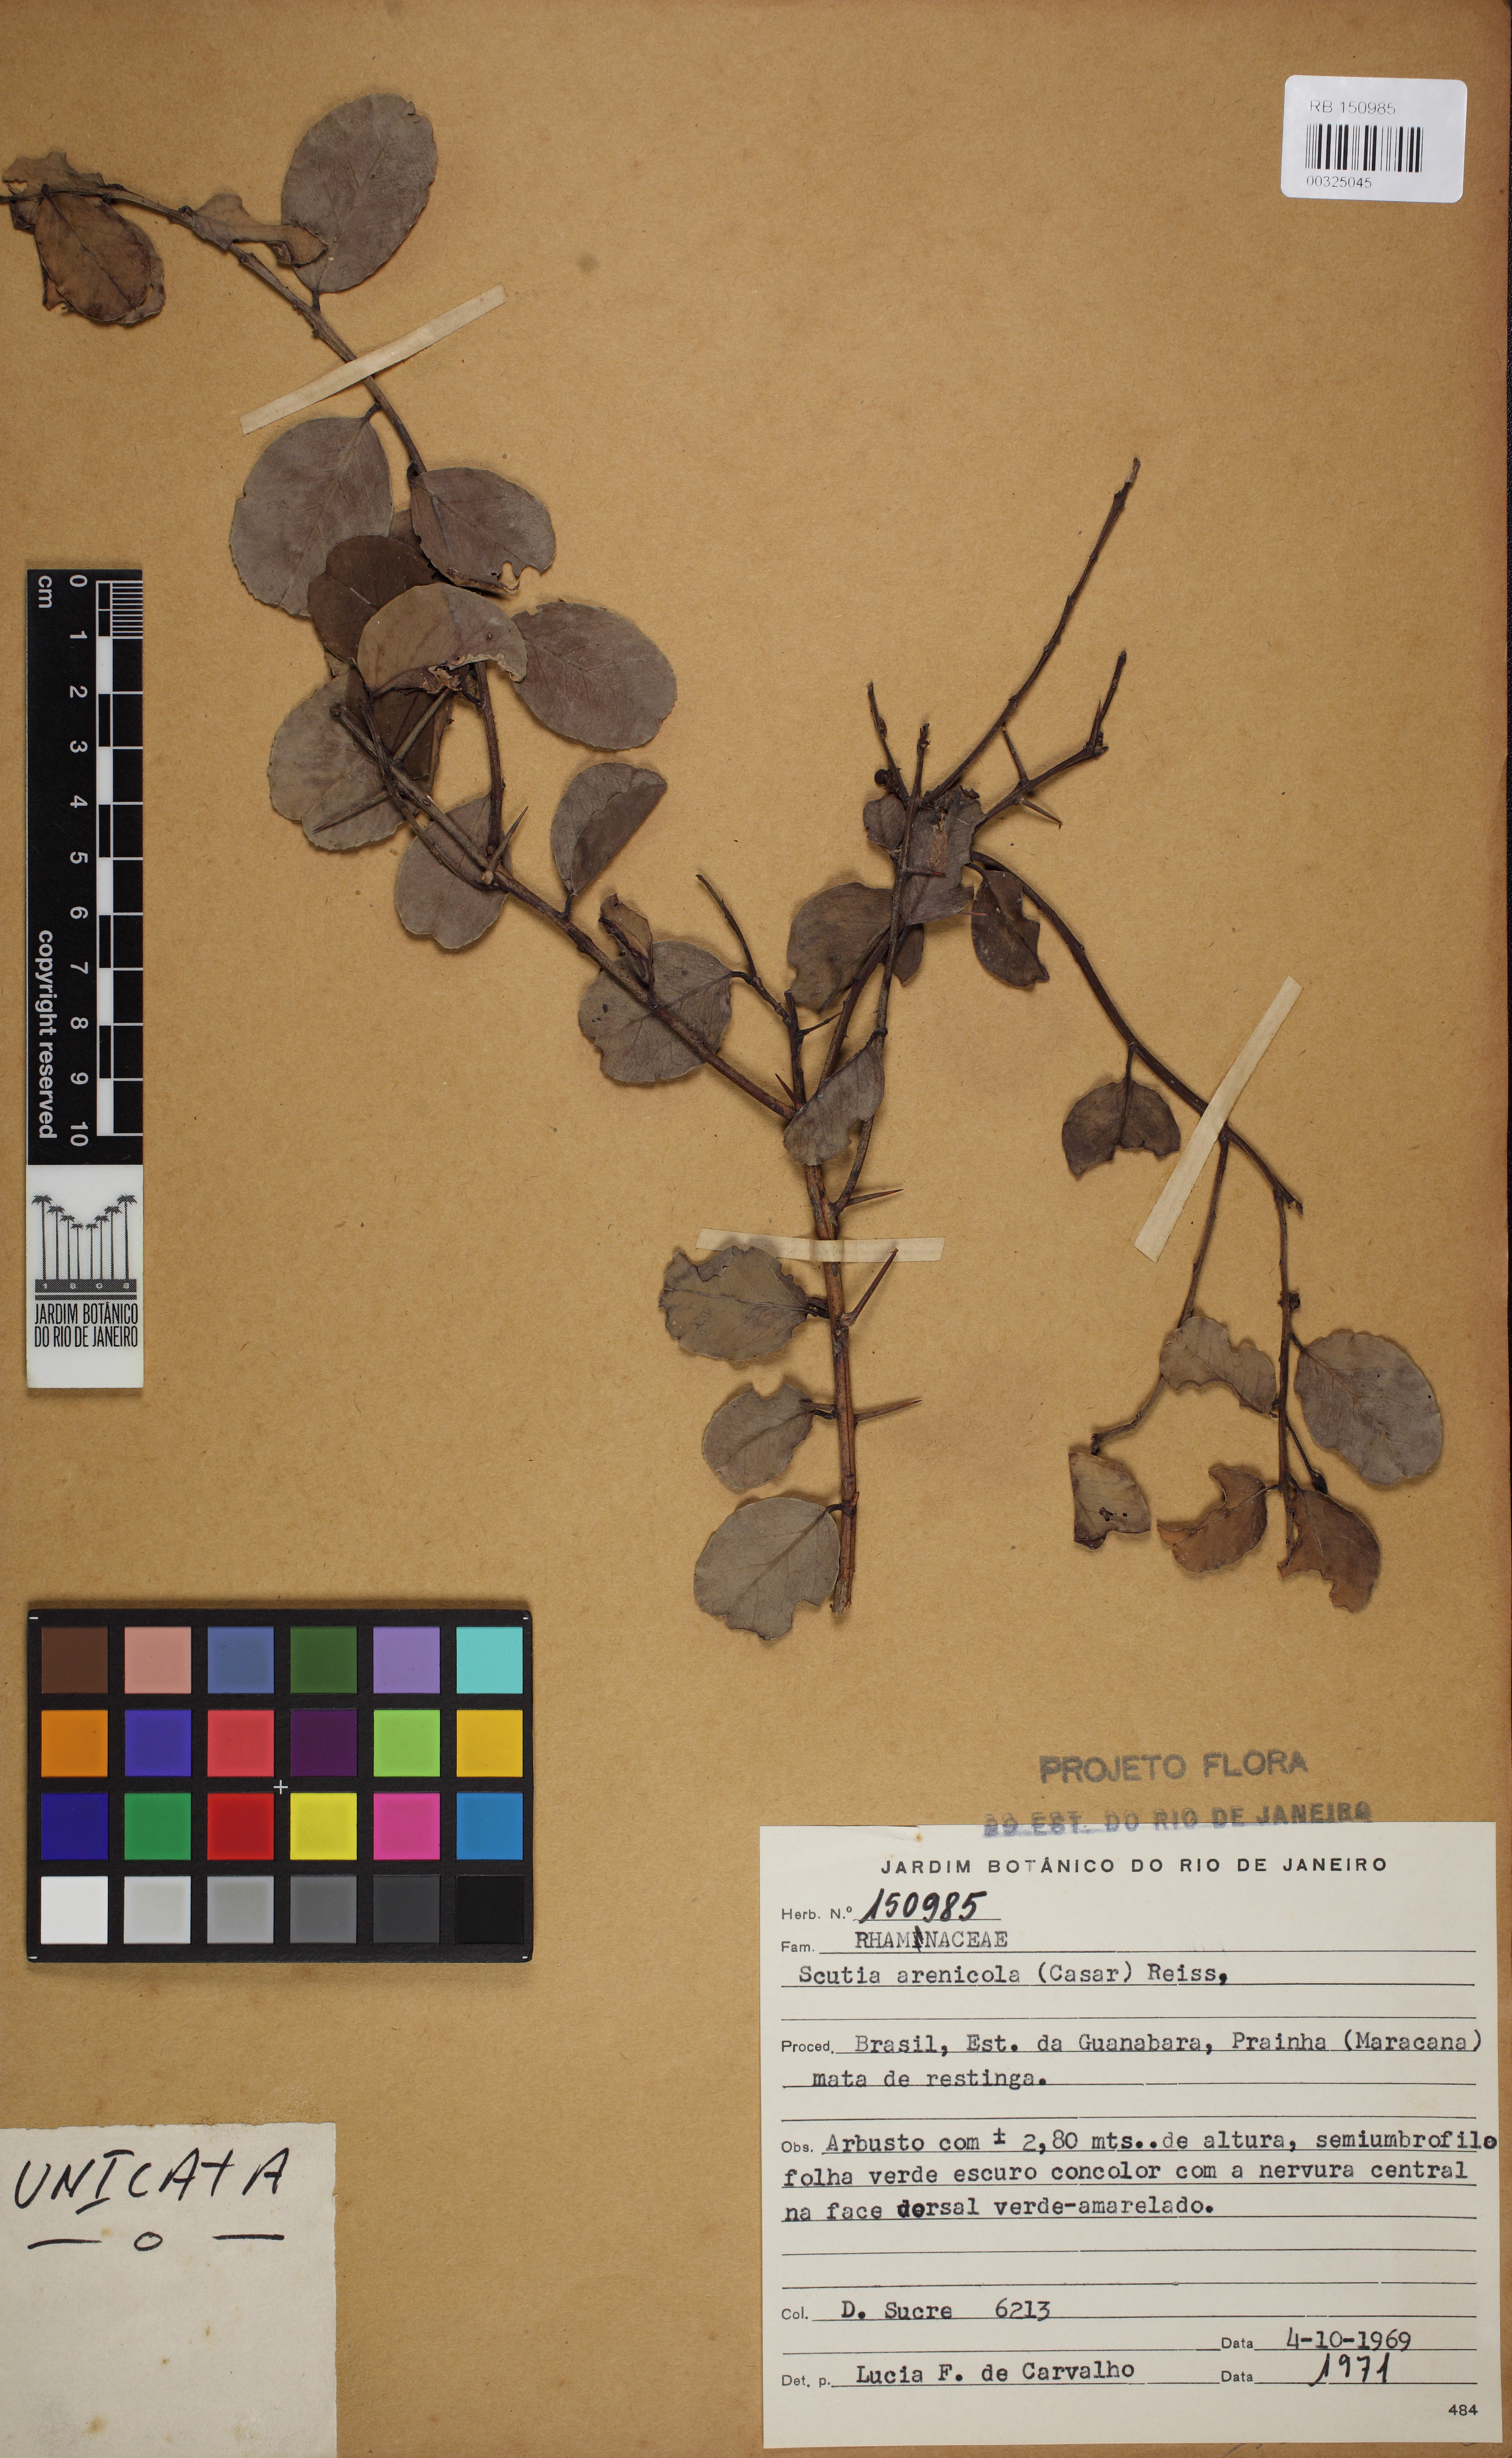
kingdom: Plantae
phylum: Tracheophyta
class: Magnoliopsida
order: Rosales
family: Rhamnaceae
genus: Scutia
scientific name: Scutia arenicola
